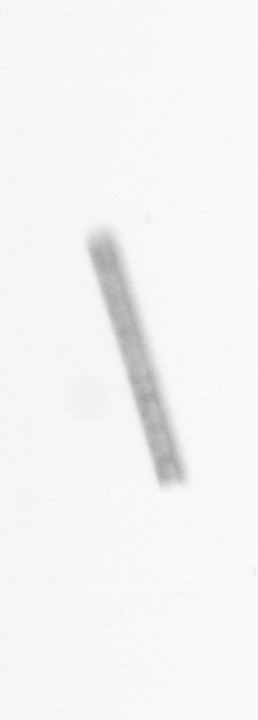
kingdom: Chromista
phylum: Ochrophyta
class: Bacillariophyceae
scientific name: Bacillariophyceae
